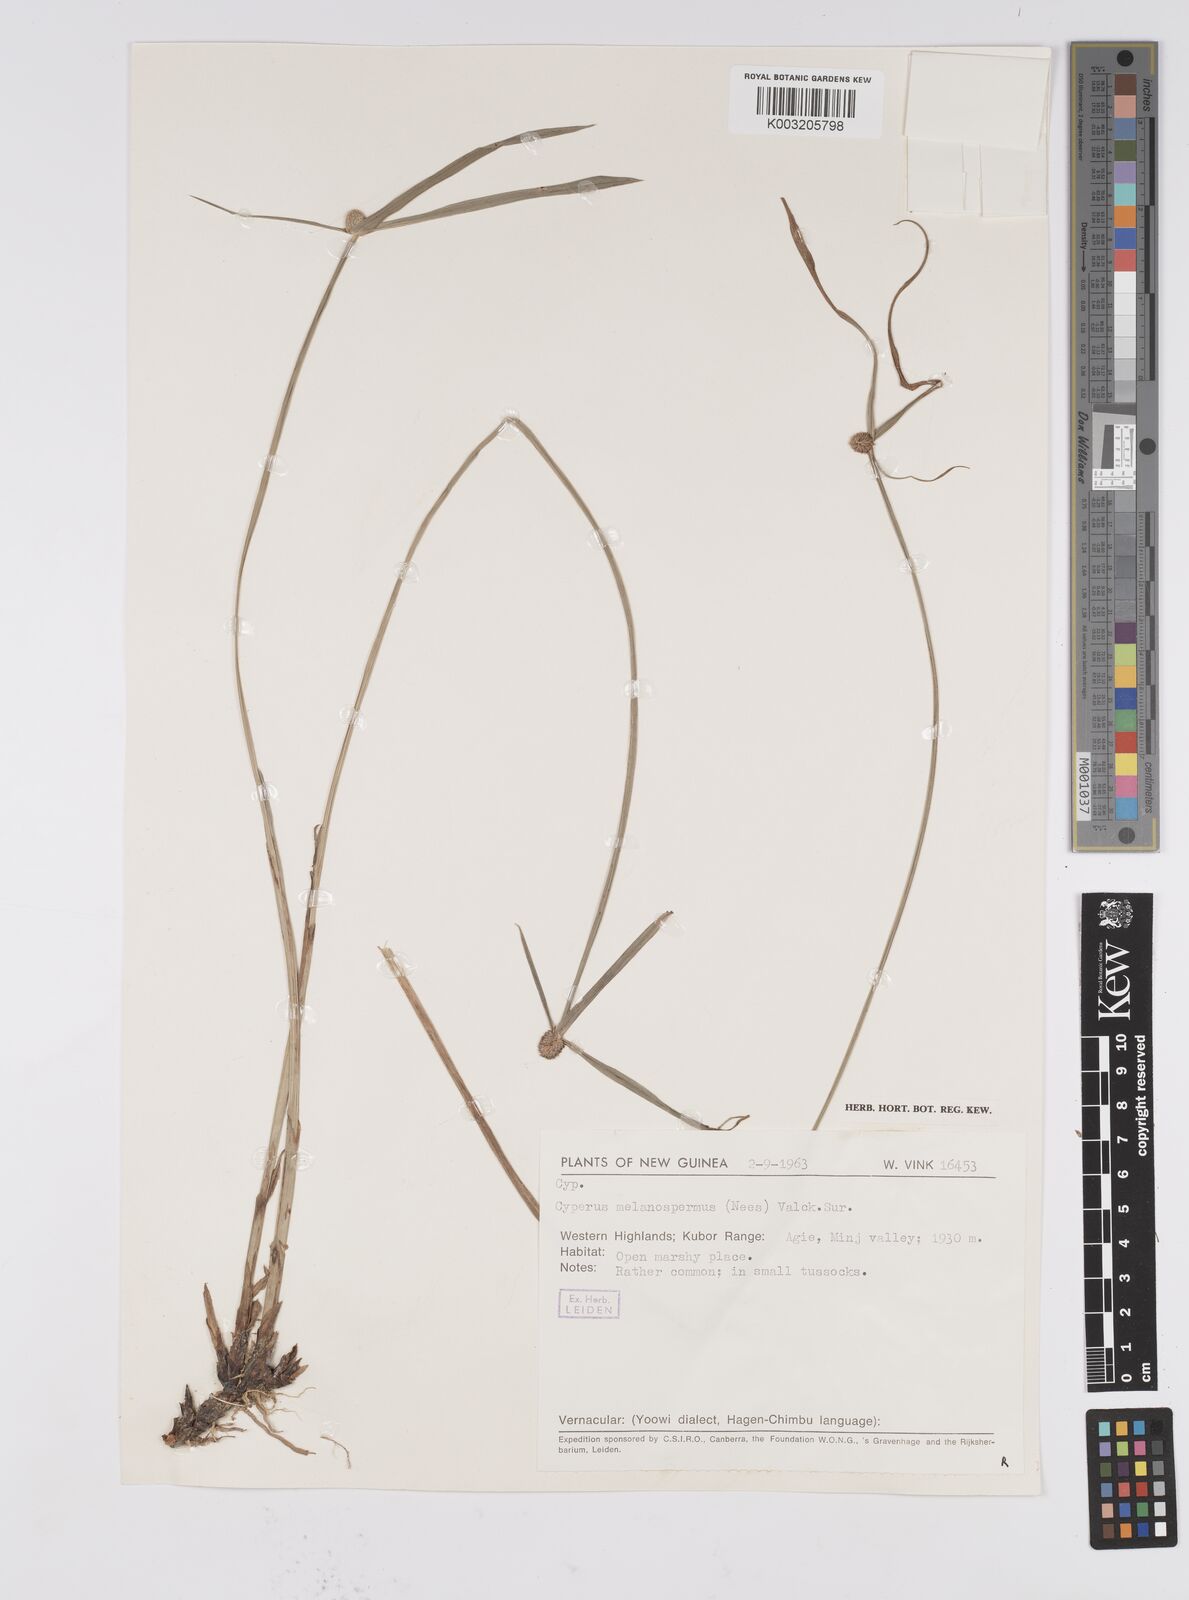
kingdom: Plantae
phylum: Tracheophyta
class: Liliopsida
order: Poales
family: Cyperaceae
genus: Cyperus
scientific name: Cyperus melanospermus
